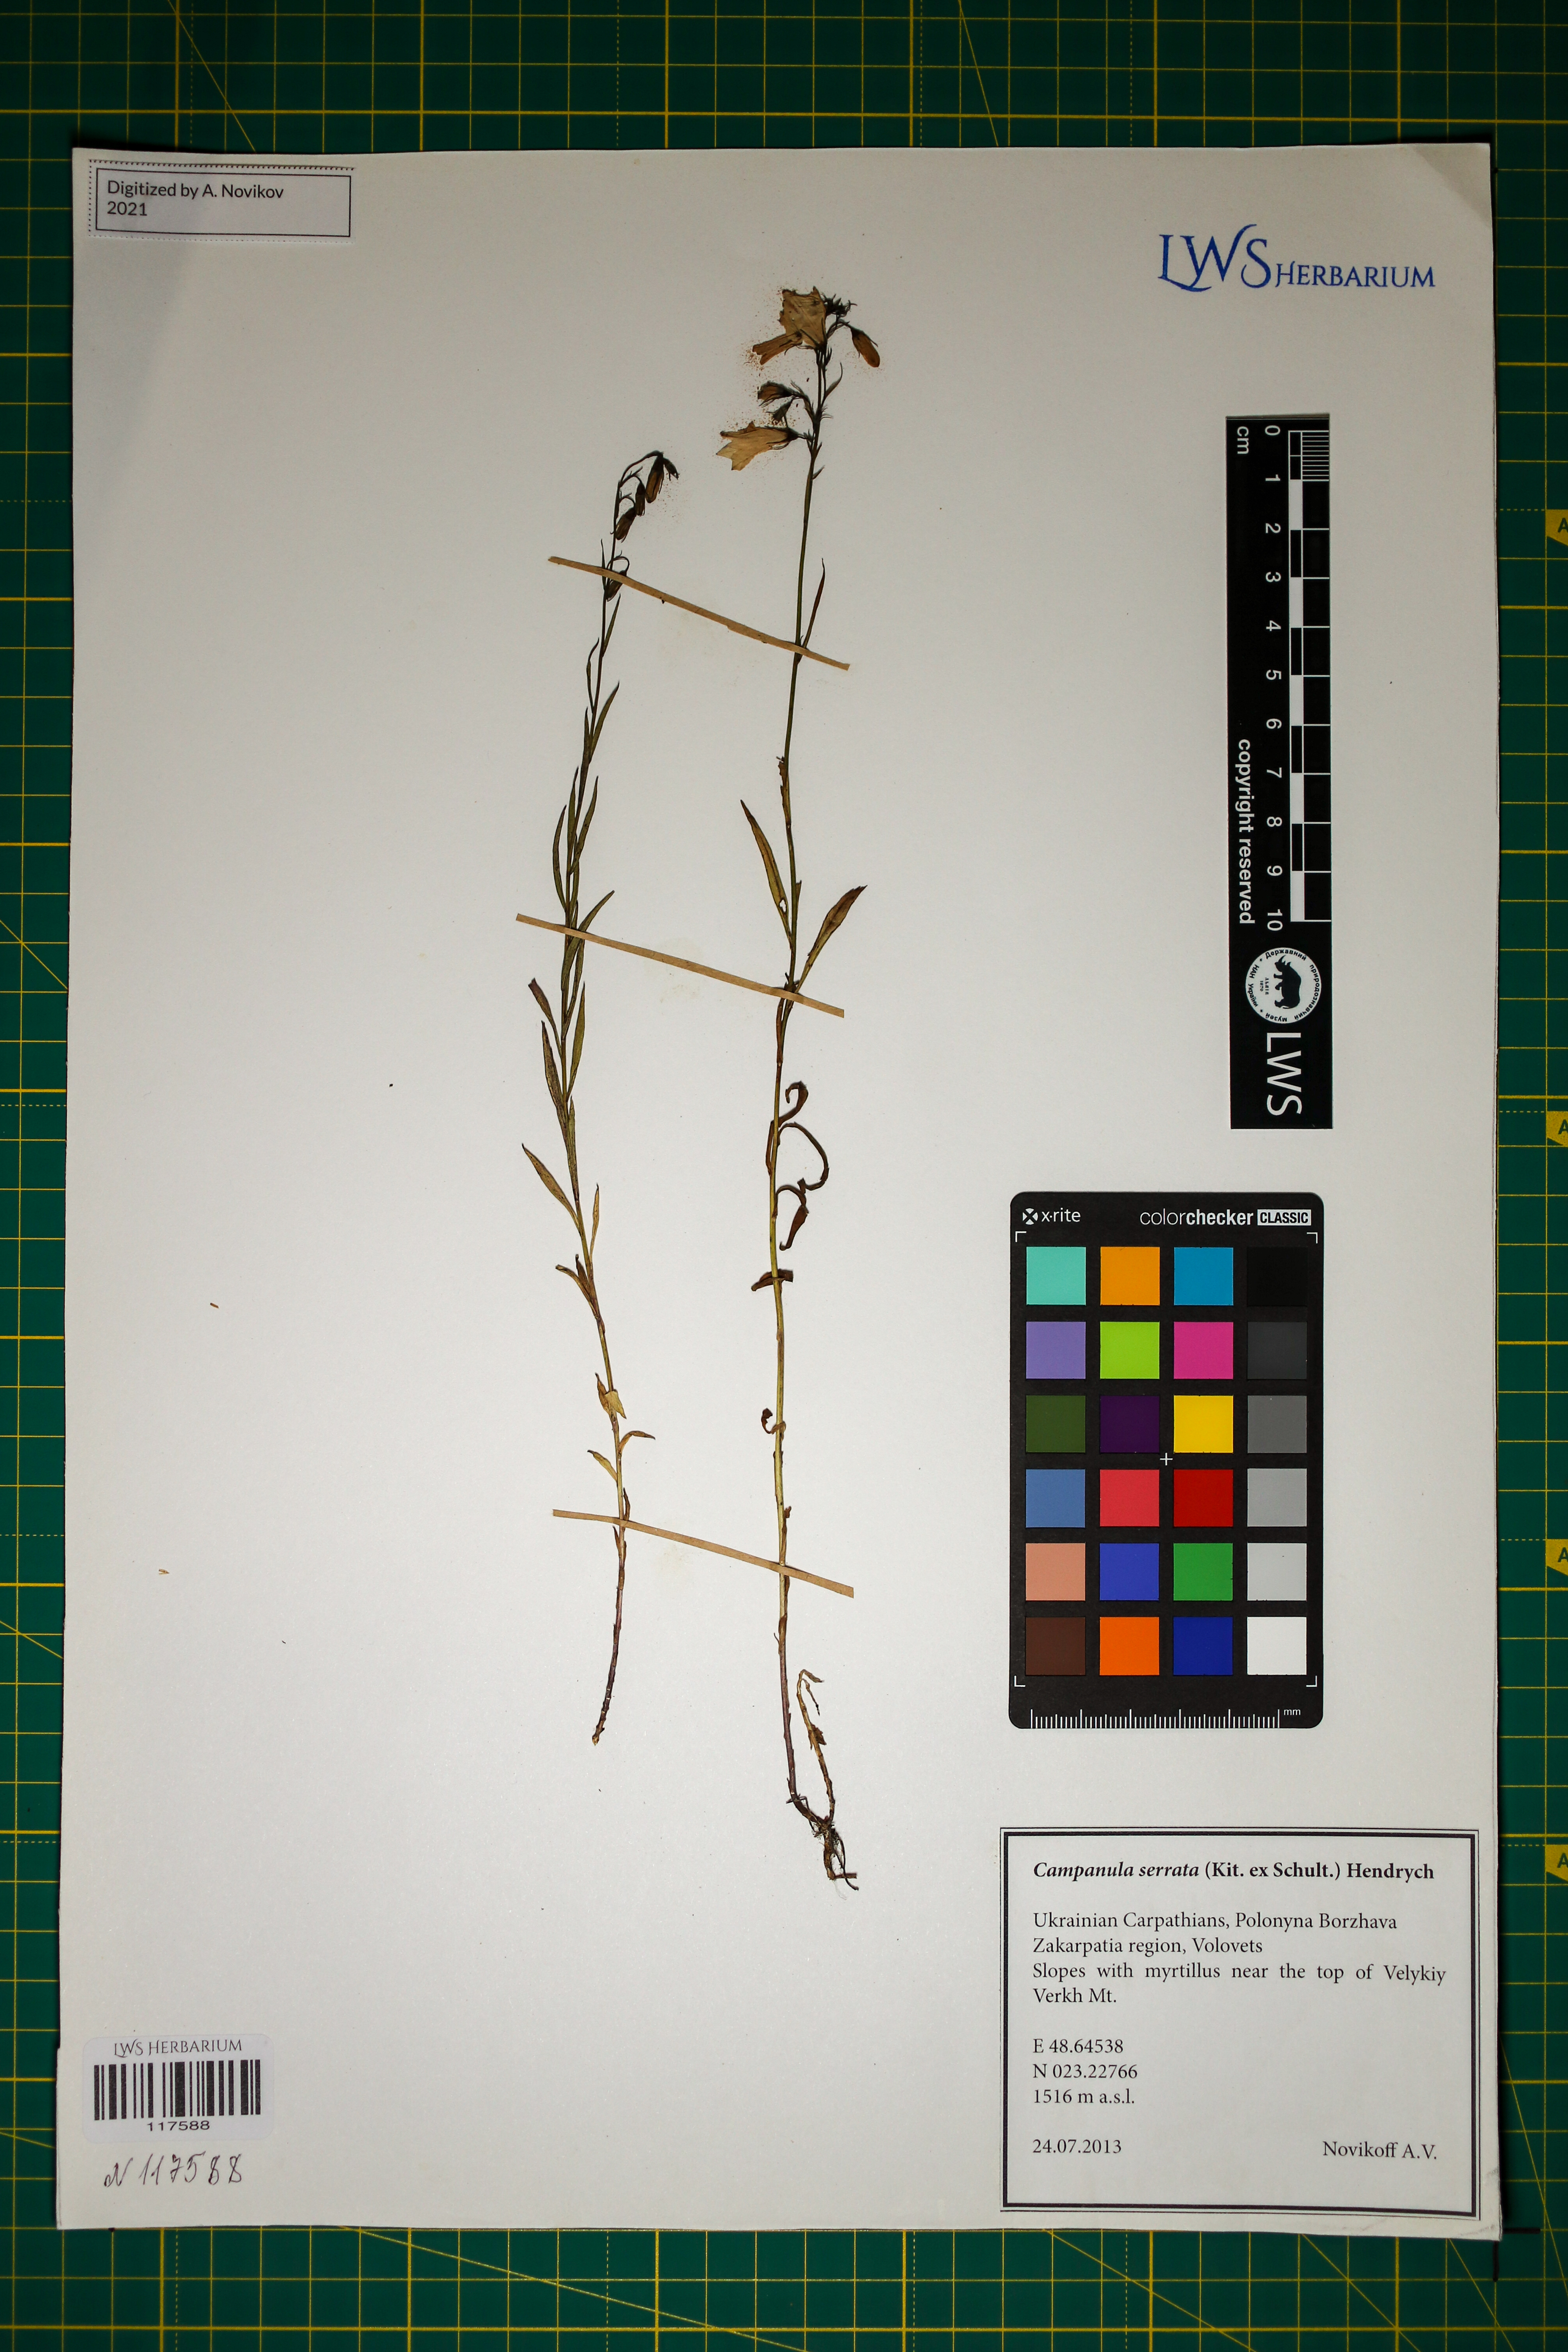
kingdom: Plantae
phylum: Tracheophyta
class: Magnoliopsida
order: Asterales
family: Campanulaceae
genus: Campanula
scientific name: Campanula serrata
